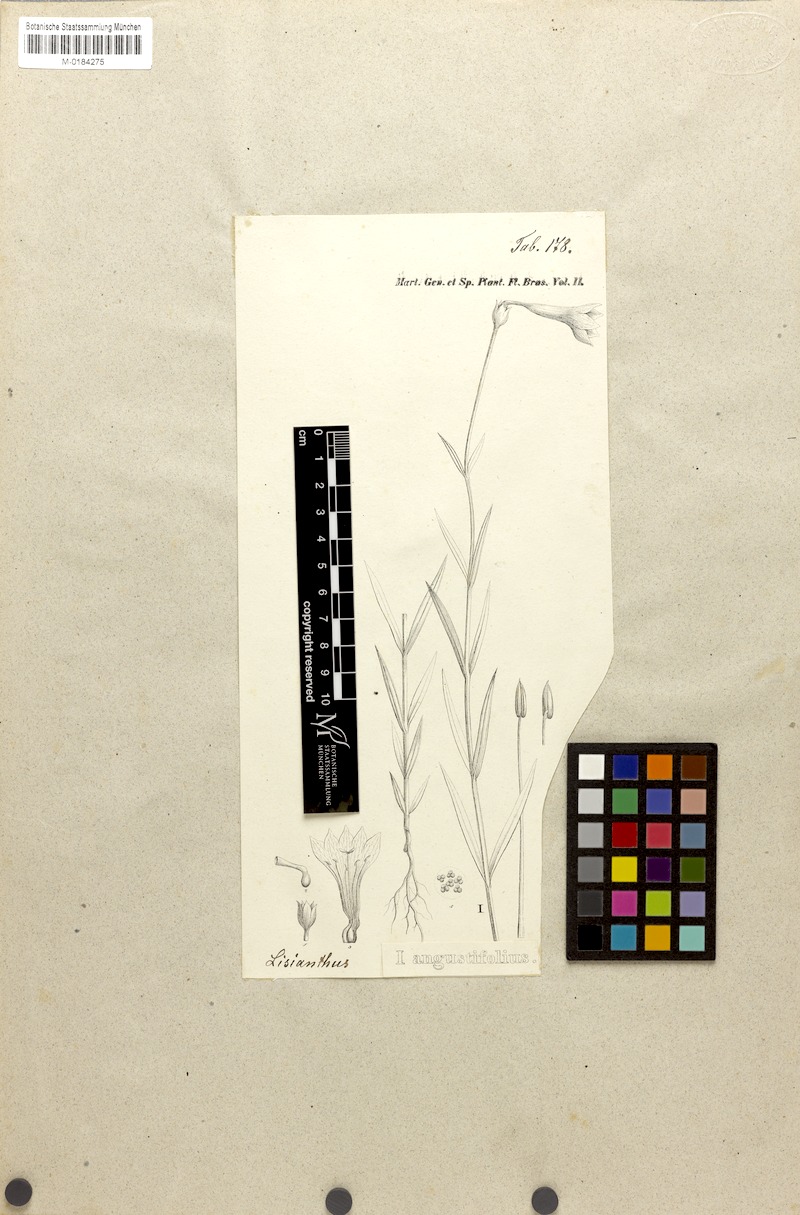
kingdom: Plantae
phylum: Tracheophyta
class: Magnoliopsida
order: Gentianales
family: Gentianaceae
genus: Calolisianthus
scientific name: Calolisianthus pulcherrimus
